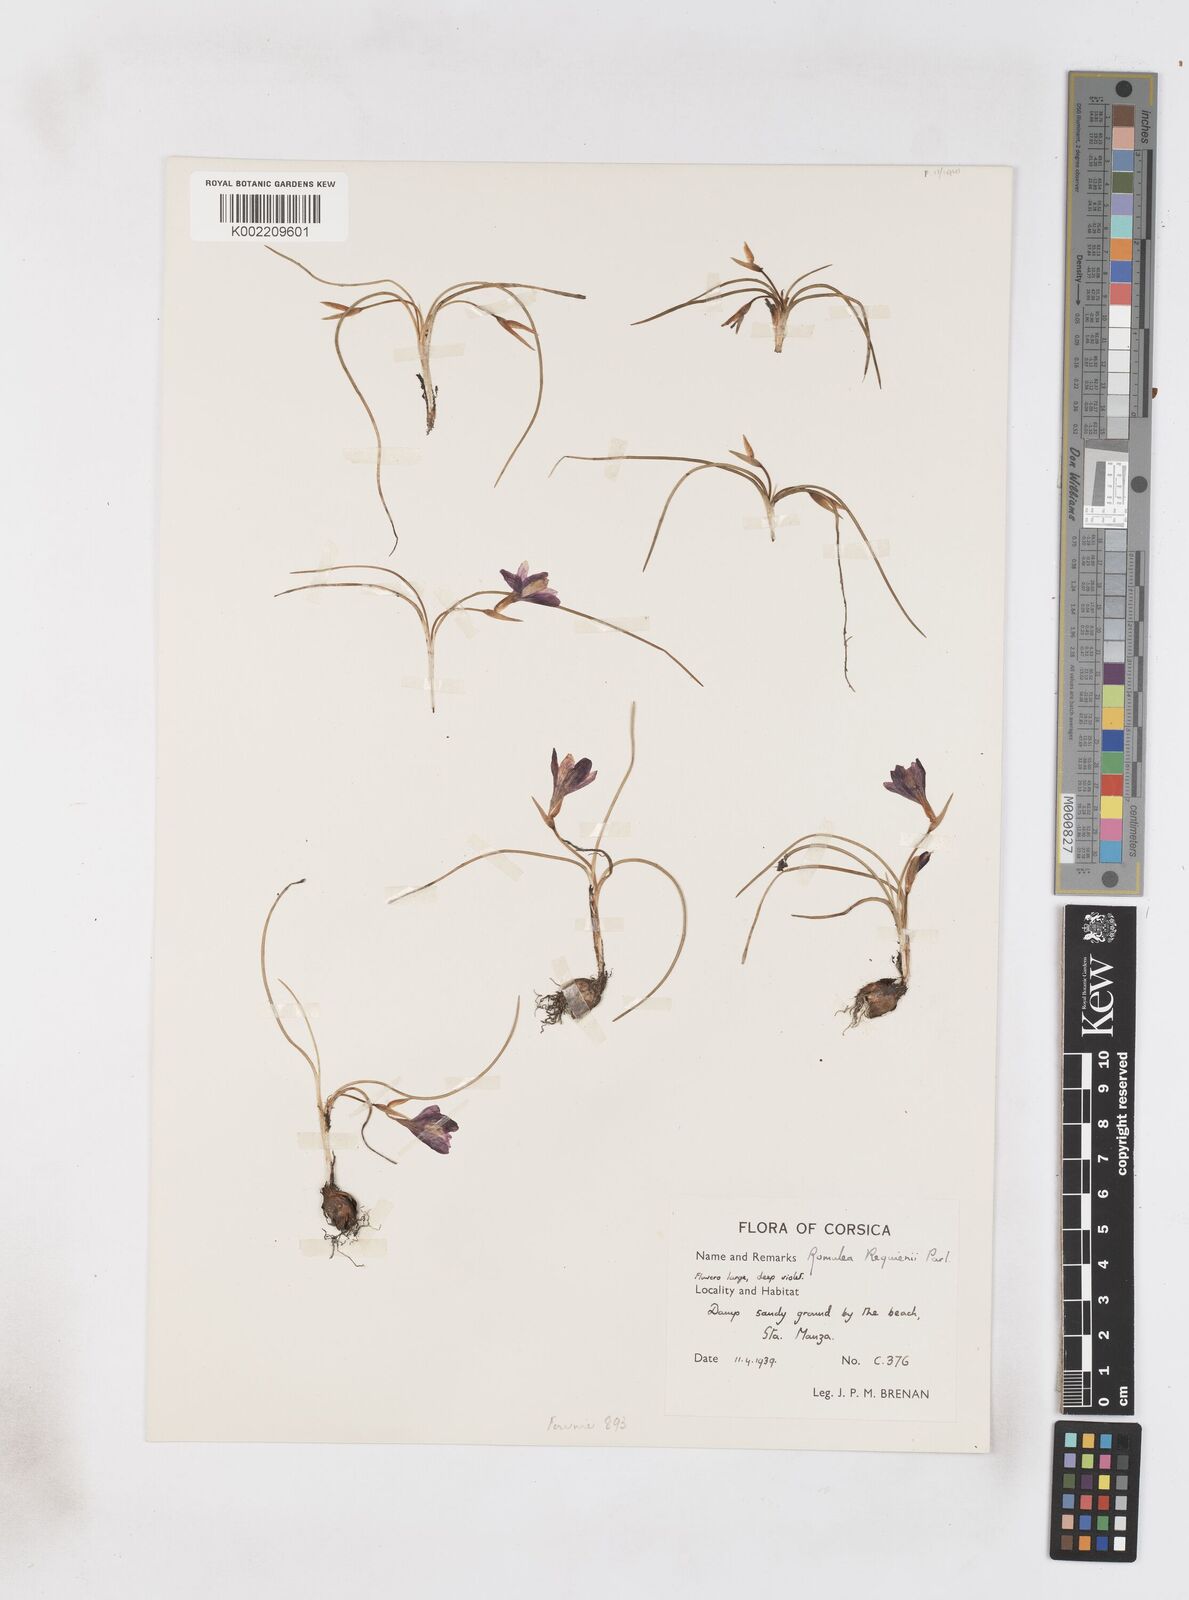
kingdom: Plantae
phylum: Tracheophyta
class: Liliopsida
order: Asparagales
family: Iridaceae
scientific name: Iridaceae
